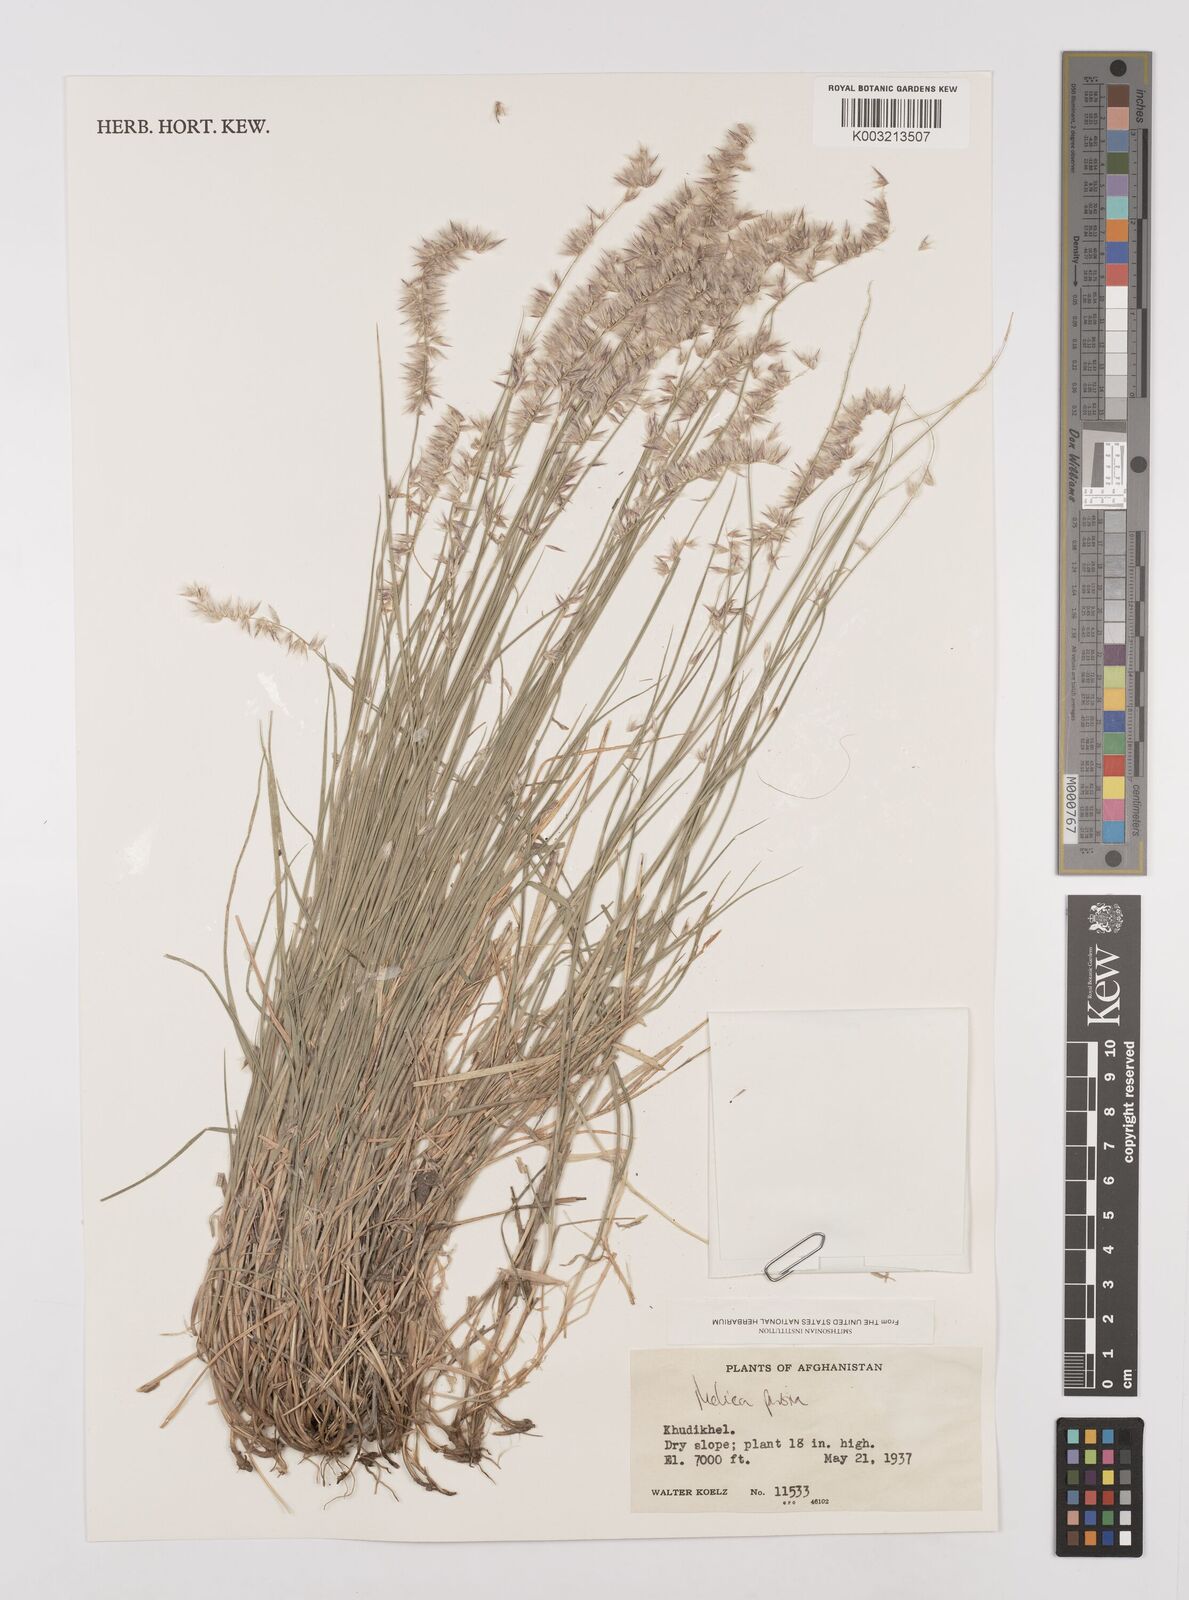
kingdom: Plantae
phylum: Tracheophyta
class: Liliopsida
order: Poales
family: Poaceae
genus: Melica
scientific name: Melica persica
